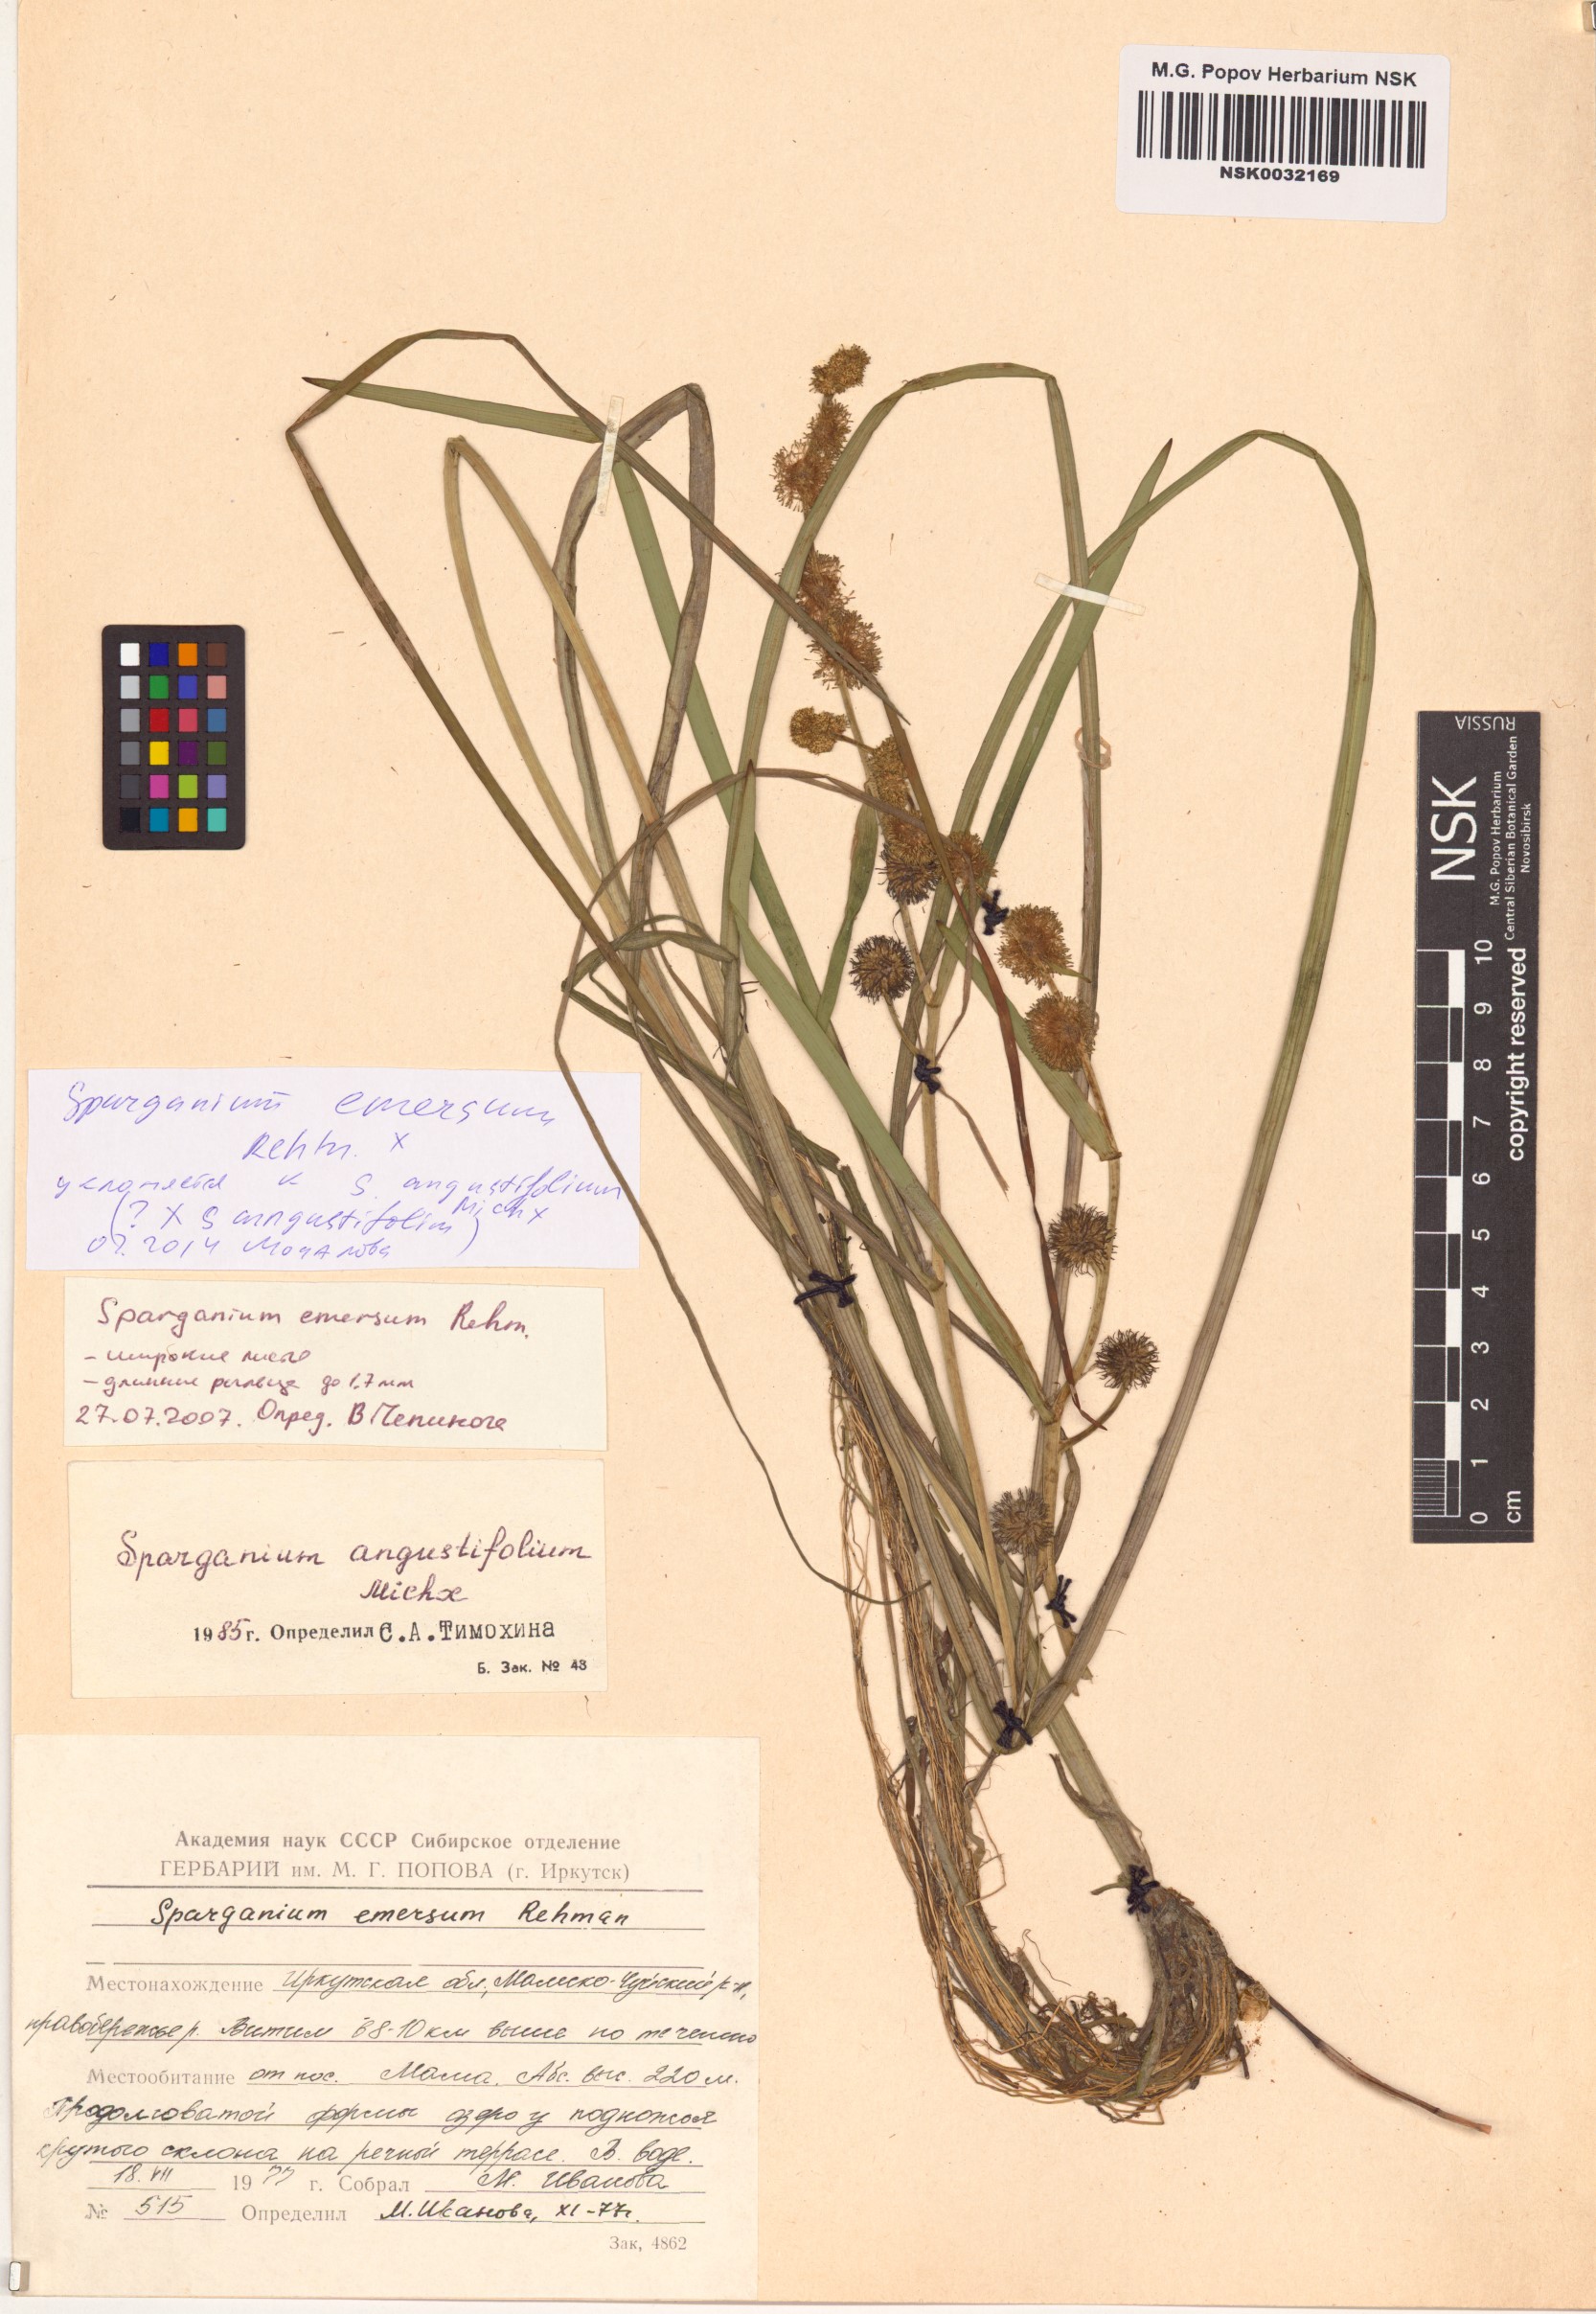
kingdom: Plantae
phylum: Tracheophyta
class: Liliopsida
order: Poales
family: Typhaceae
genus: Sparganium
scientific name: Sparganium emersum
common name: Unbranched bur-reed
